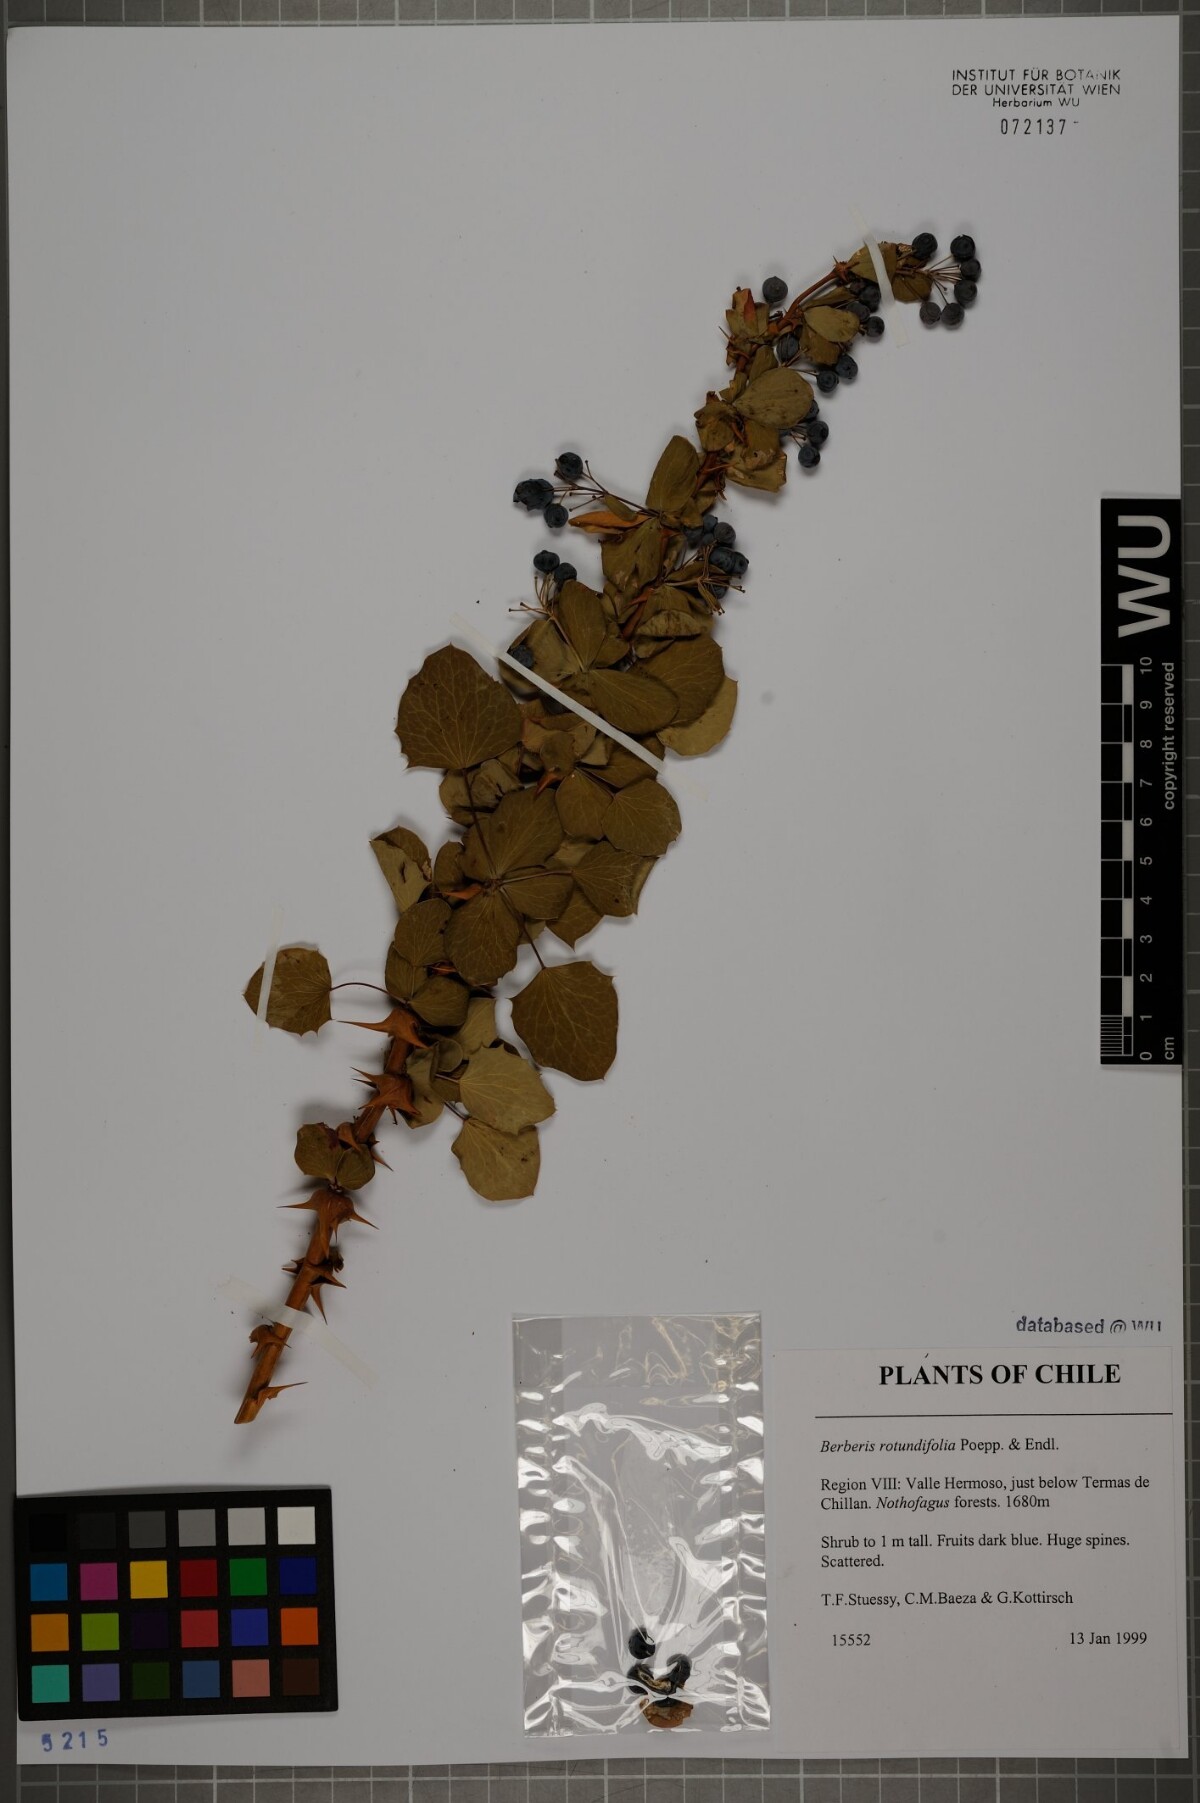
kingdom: Plantae
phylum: Tracheophyta
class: Magnoliopsida
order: Ranunculales
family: Berberidaceae
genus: Berberis
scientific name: Berberis rotundifolia
